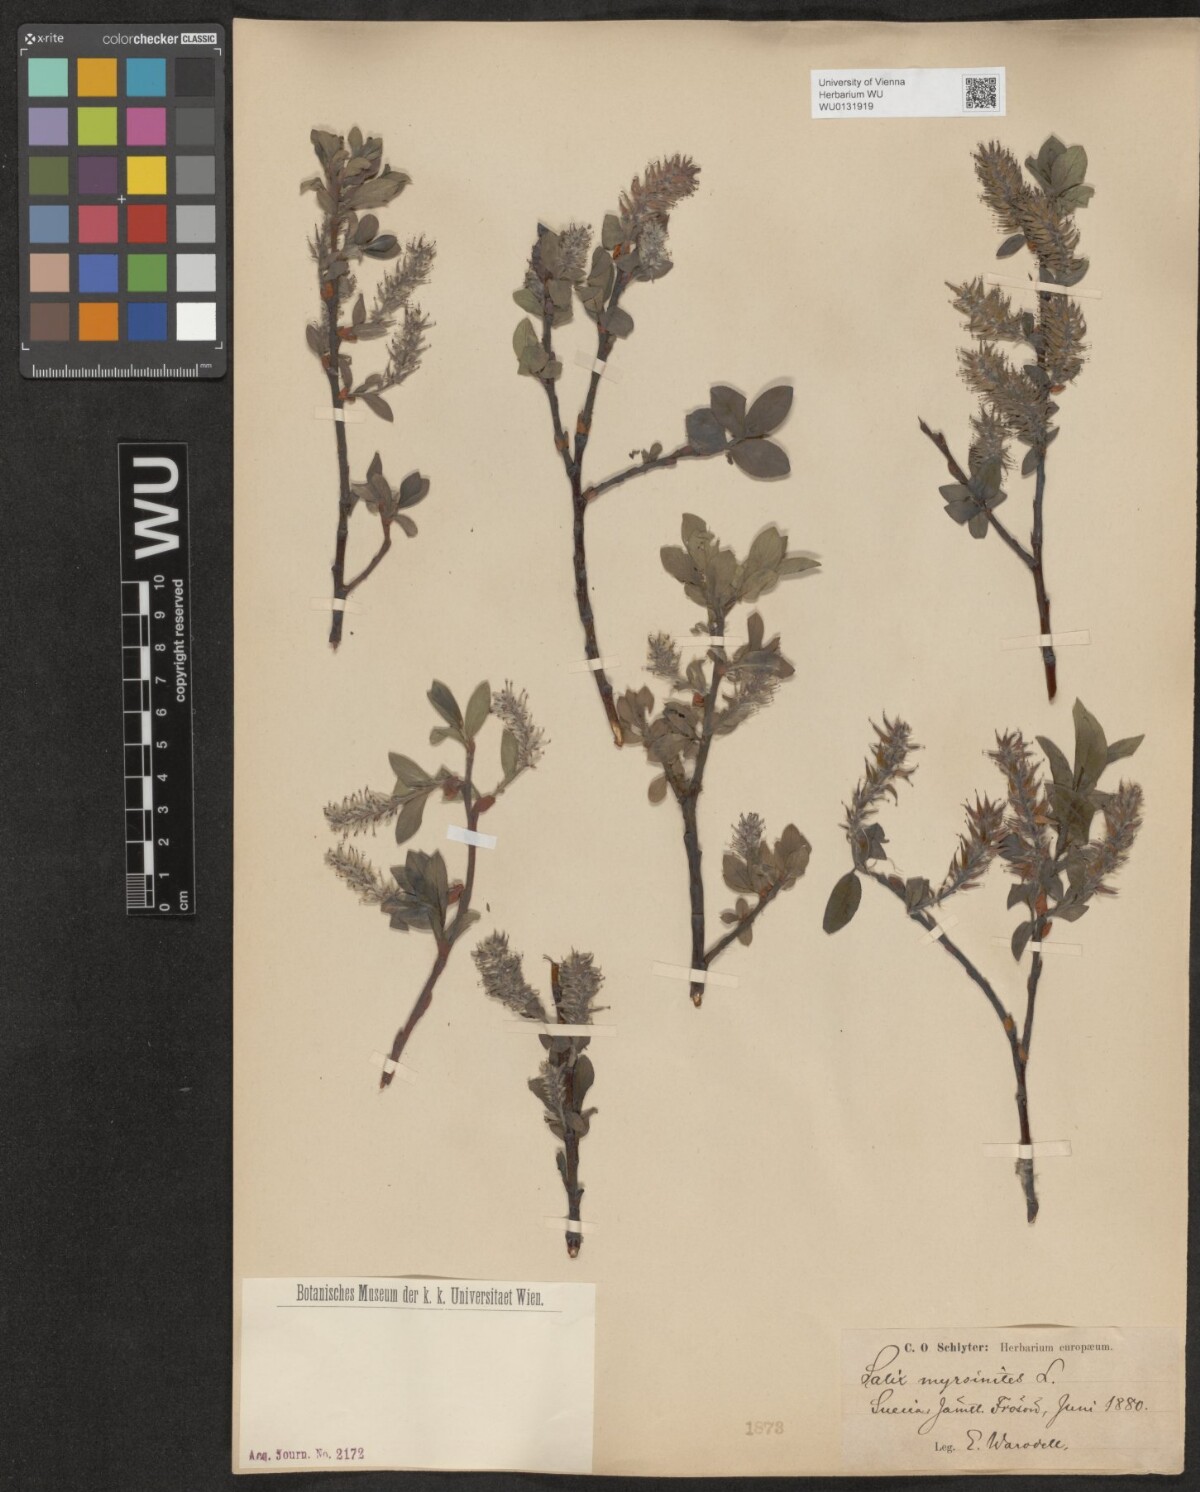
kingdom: Plantae
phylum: Tracheophyta
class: Magnoliopsida
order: Malpighiales
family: Salicaceae
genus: Salix
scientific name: Salix myrsinites
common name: Myrtle willow
